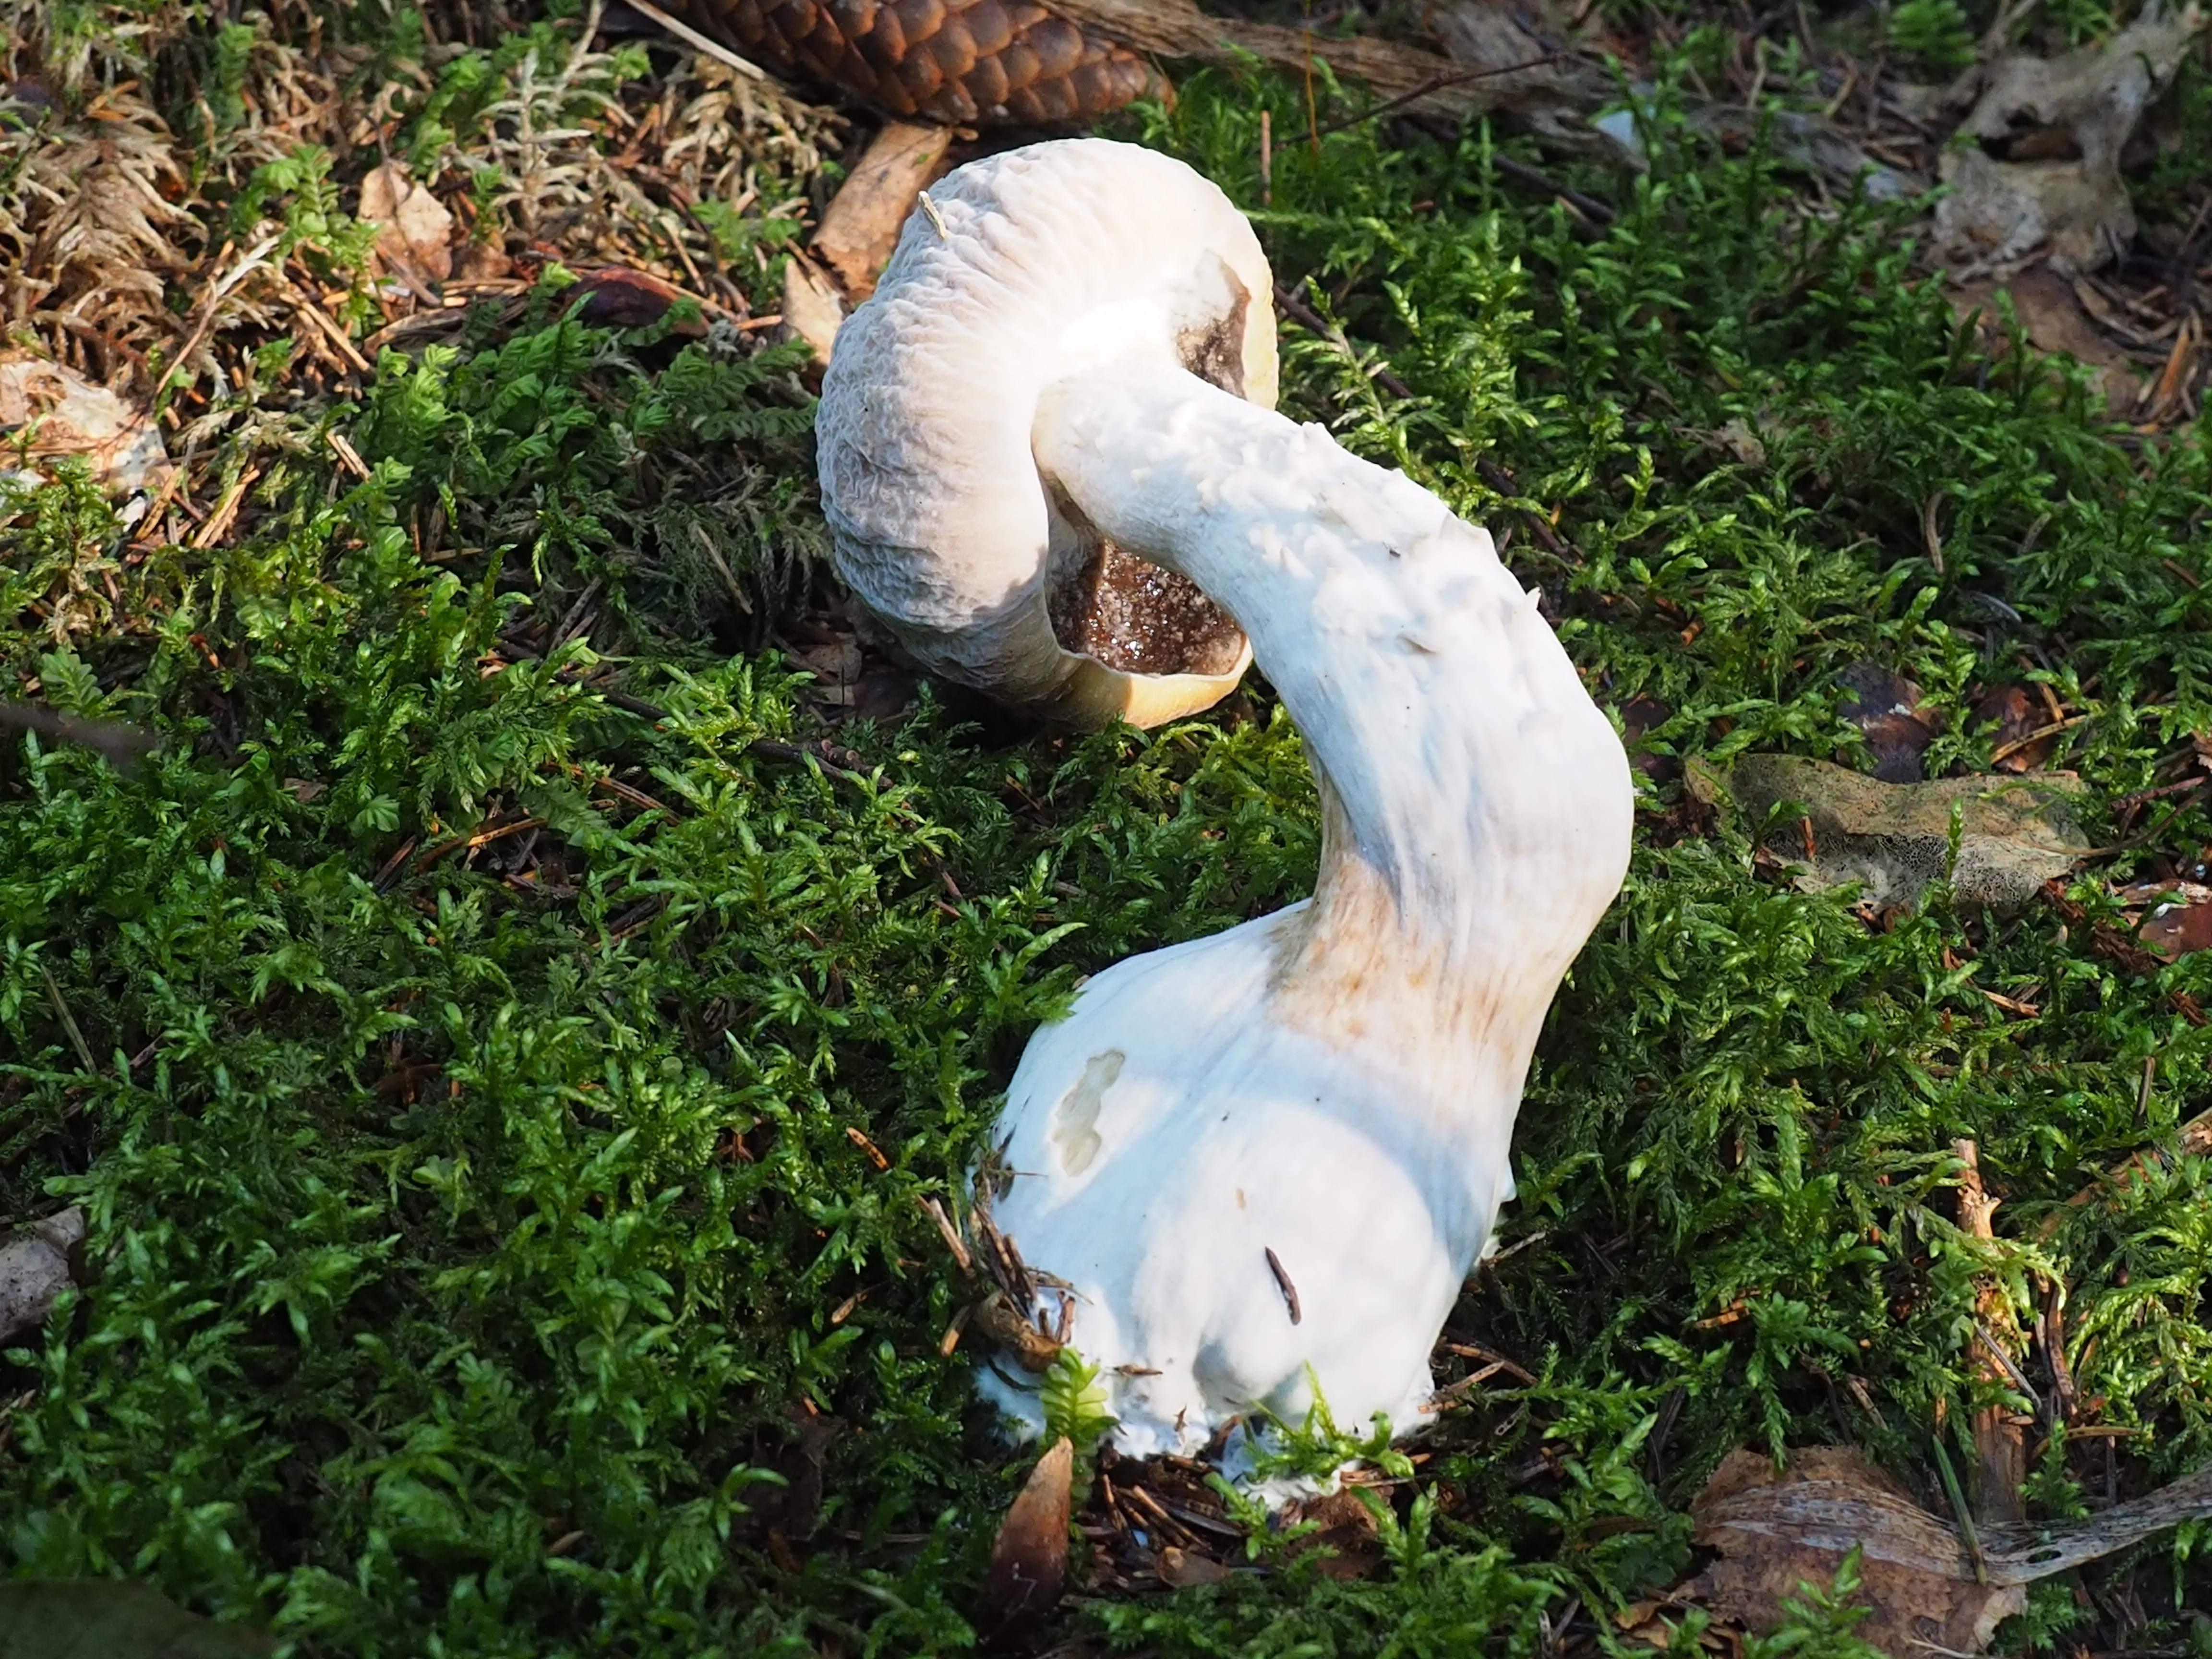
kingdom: Fungi
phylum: Ascomycota
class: Sordariomycetes
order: Hypocreales
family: Hypocreaceae
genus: Hypomyces
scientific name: Hypomyces chrysospermus
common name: Bolete mould
